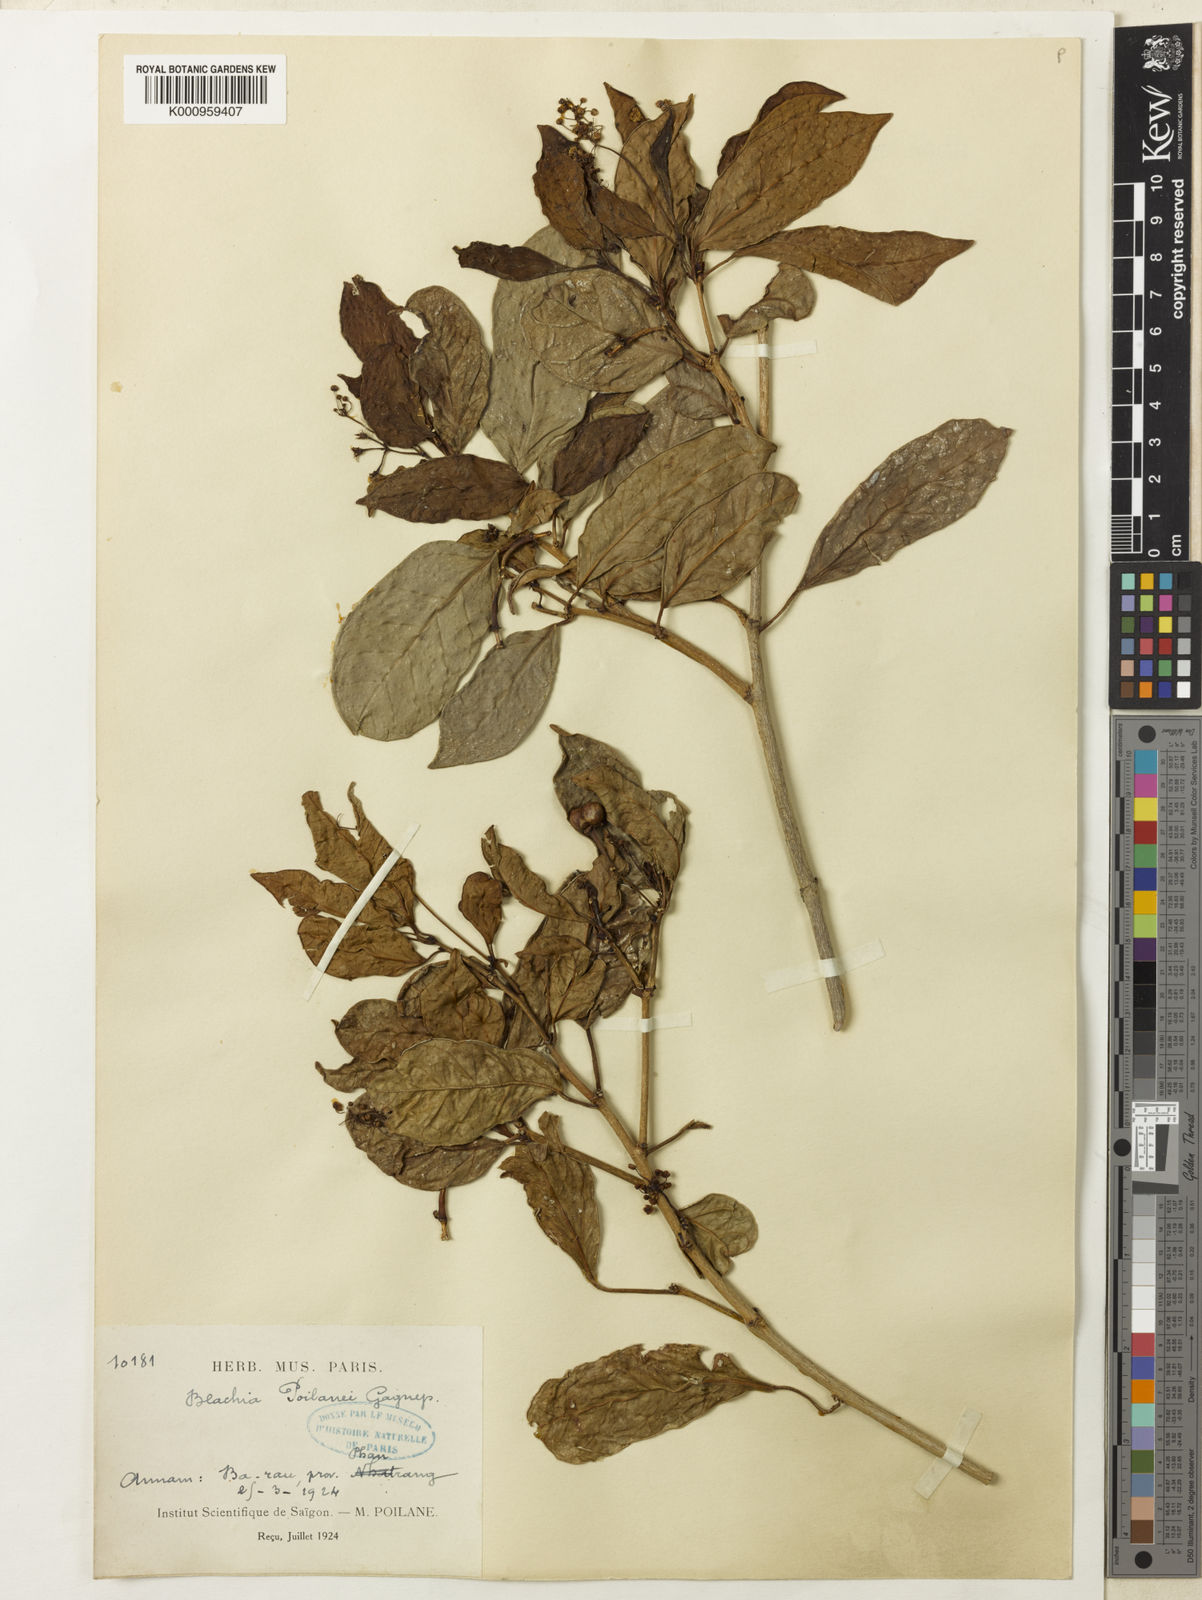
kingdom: Plantae
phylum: Tracheophyta
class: Magnoliopsida
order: Malpighiales
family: Euphorbiaceae
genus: Blachia
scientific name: Blachia poilanei
